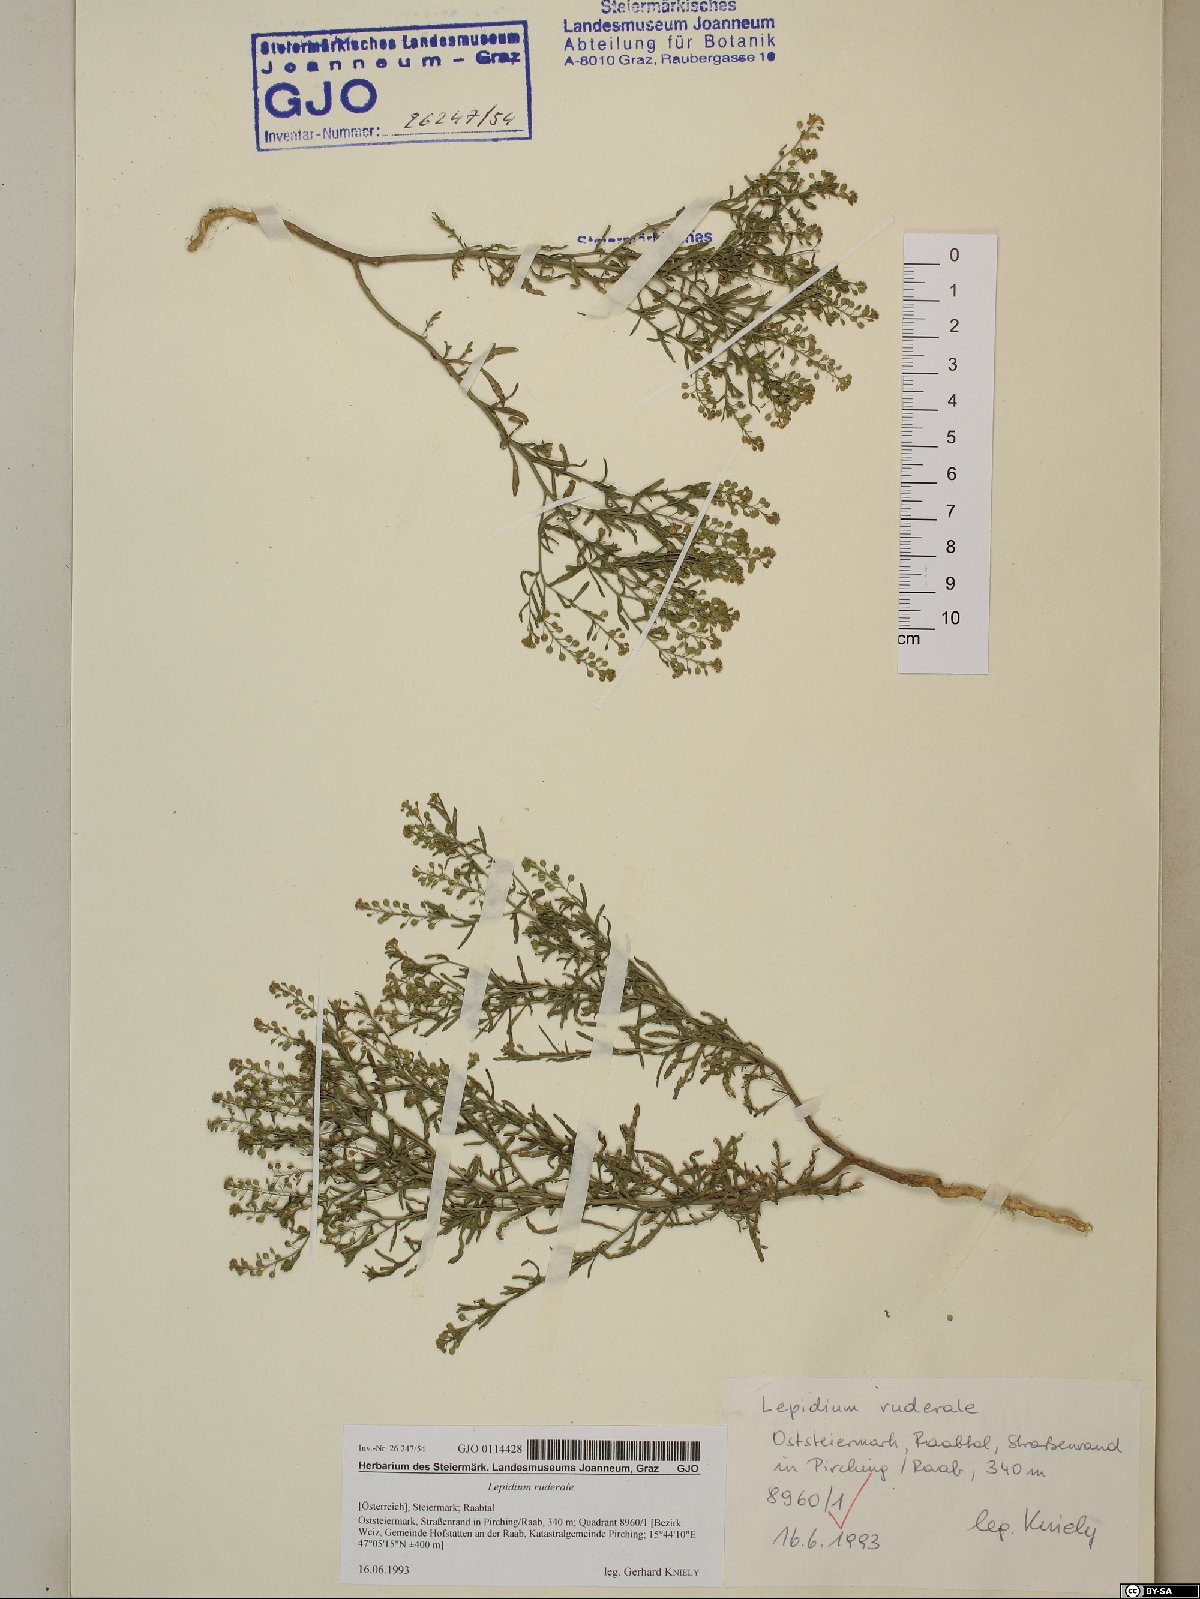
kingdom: Plantae
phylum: Tracheophyta
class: Magnoliopsida
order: Brassicales
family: Brassicaceae
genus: Lepidium
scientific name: Lepidium ruderale
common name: Narrow-leaved pepperwort
